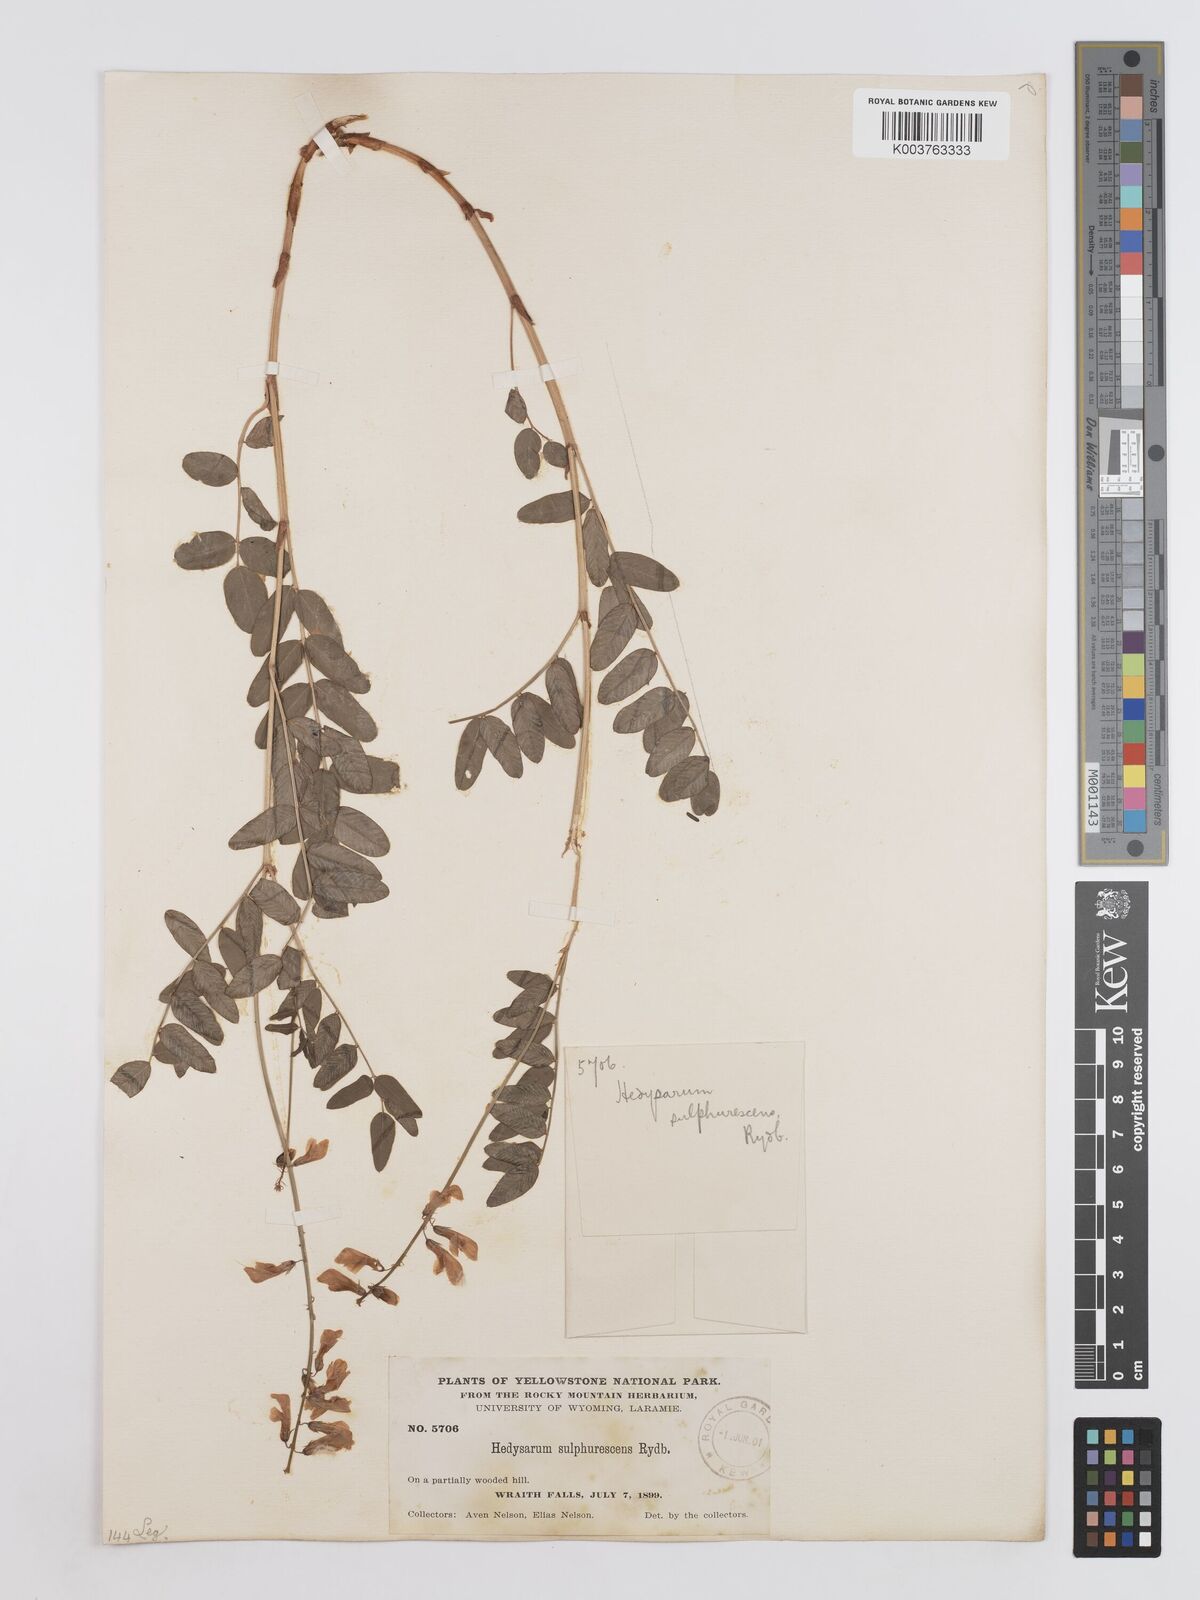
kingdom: Plantae
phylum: Tracheophyta
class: Magnoliopsida
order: Fabales
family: Fabaceae
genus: Hedysarum
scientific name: Hedysarum sulphurescens
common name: Sulphur hedysarum
